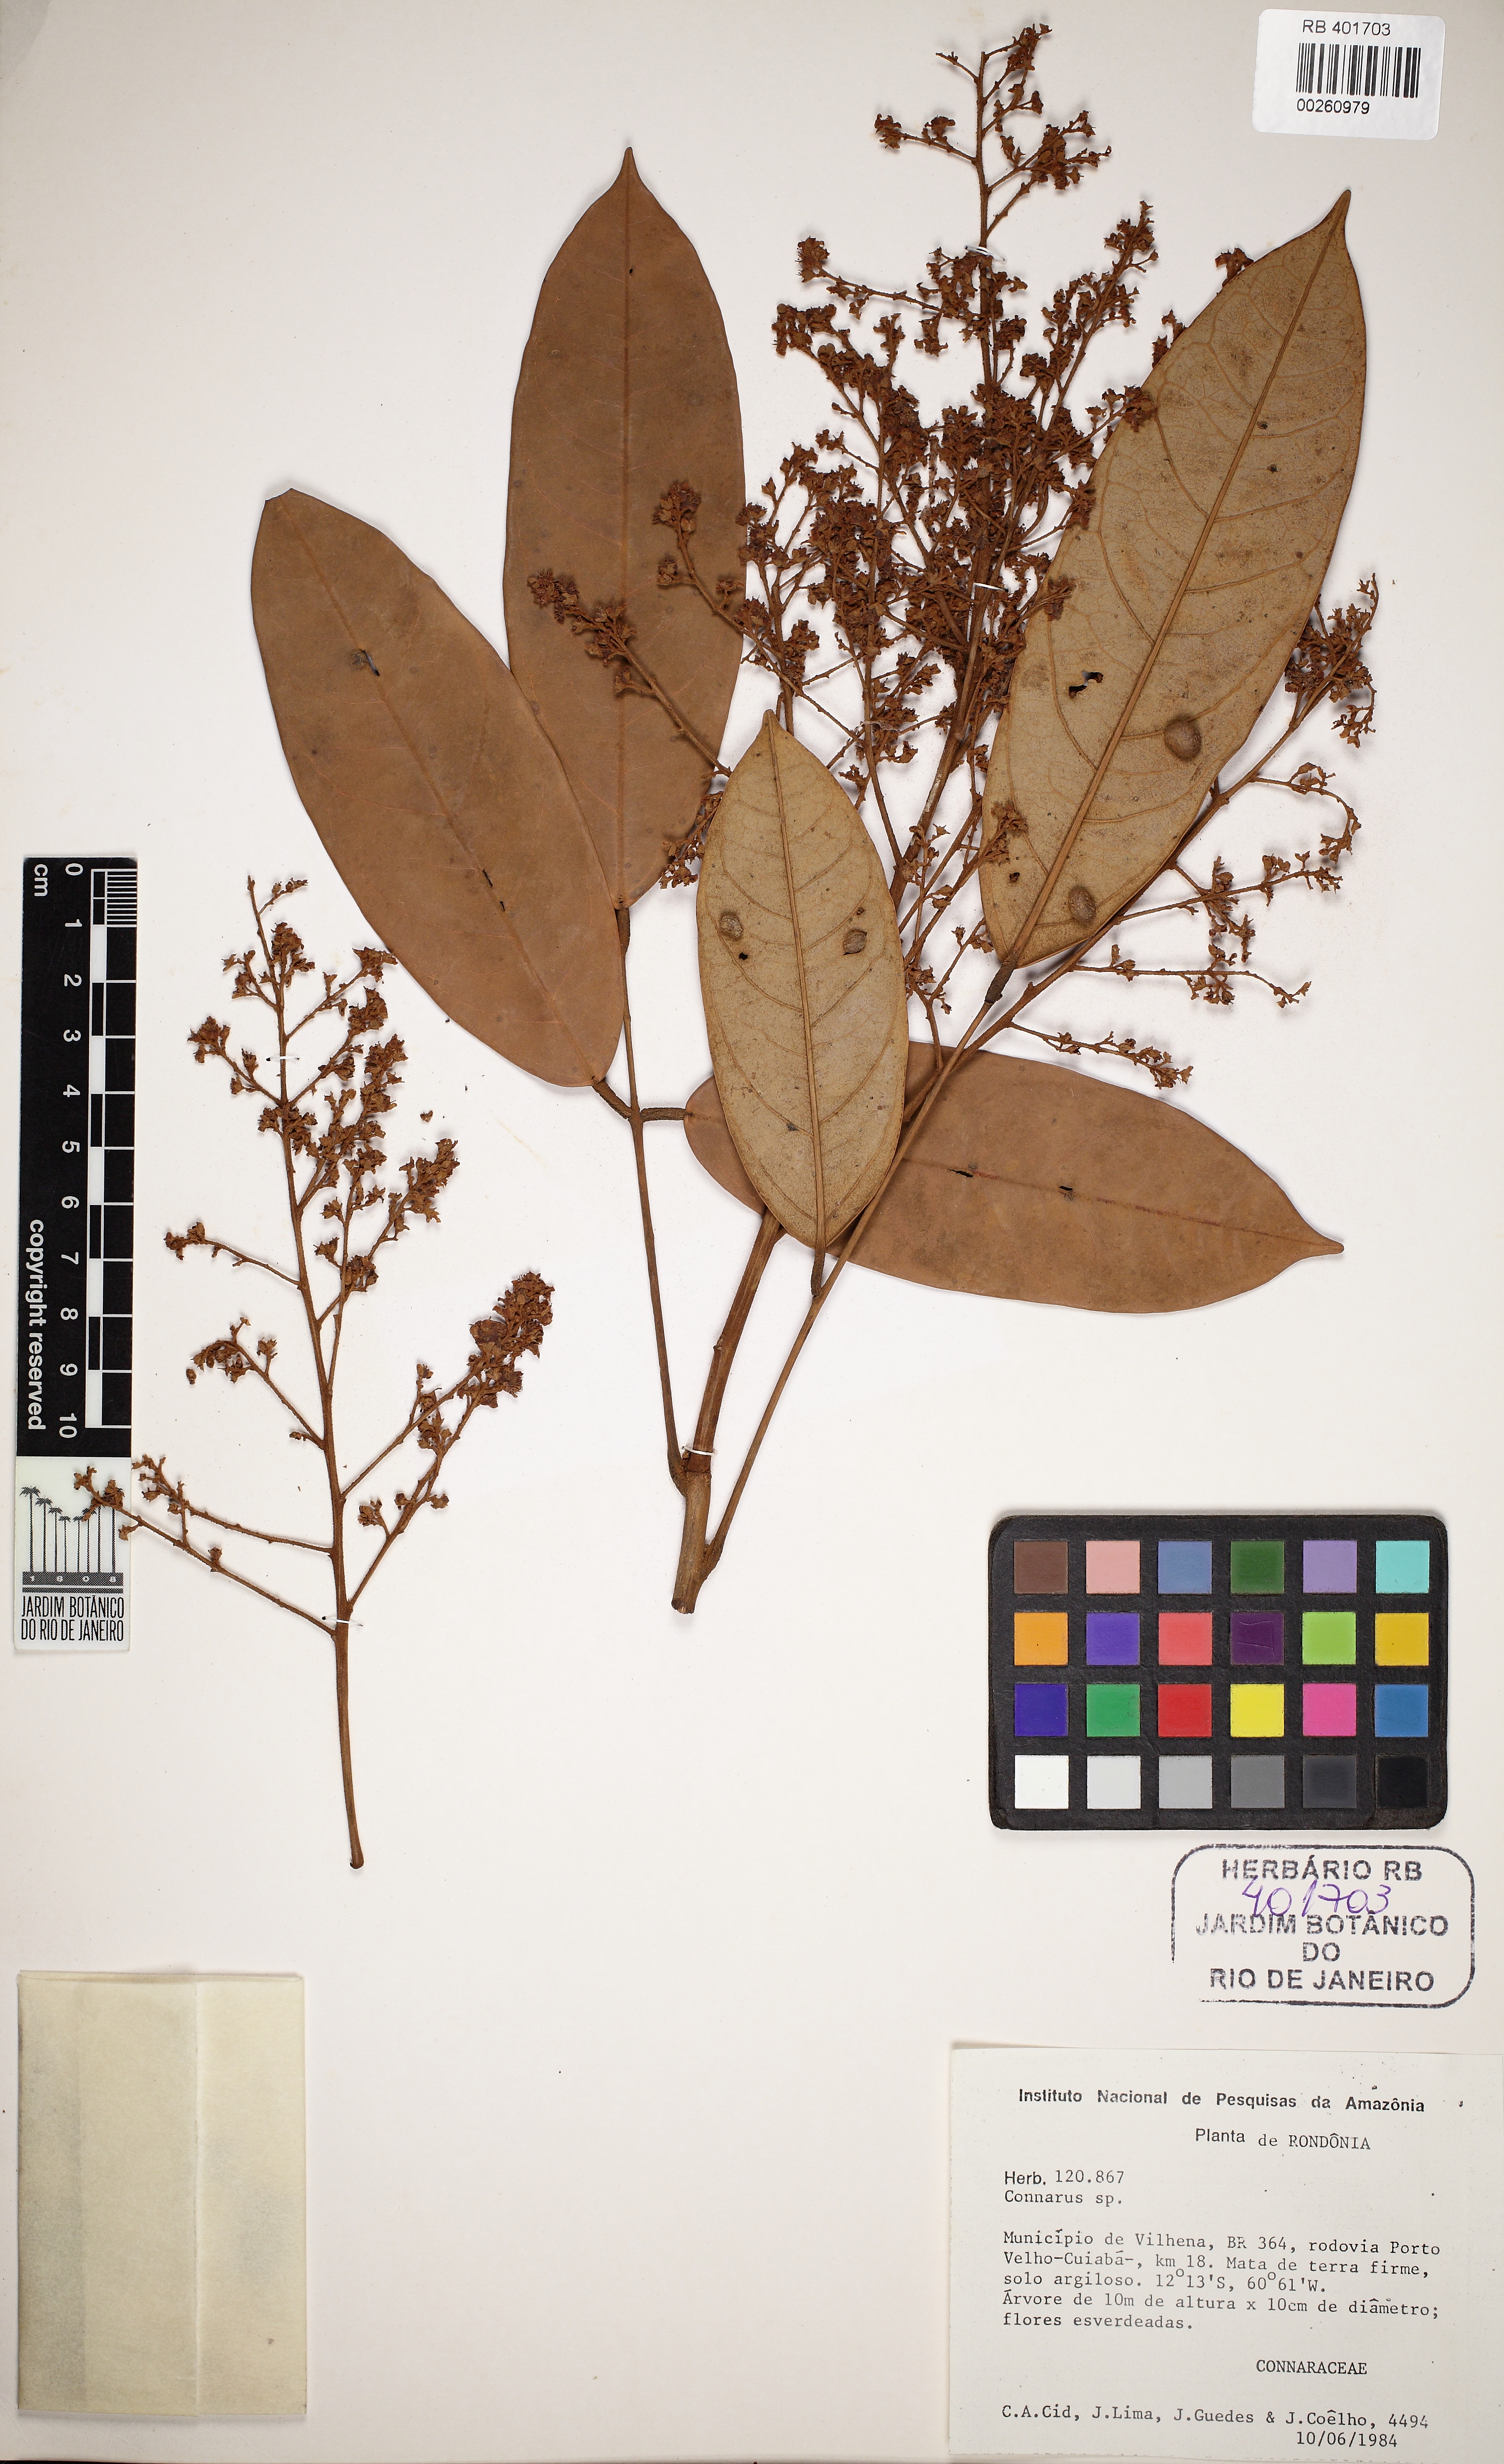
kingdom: Plantae
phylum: Tracheophyta
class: Magnoliopsida
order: Oxalidales
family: Connaraceae
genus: Connarus
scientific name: Connarus perrottetii
